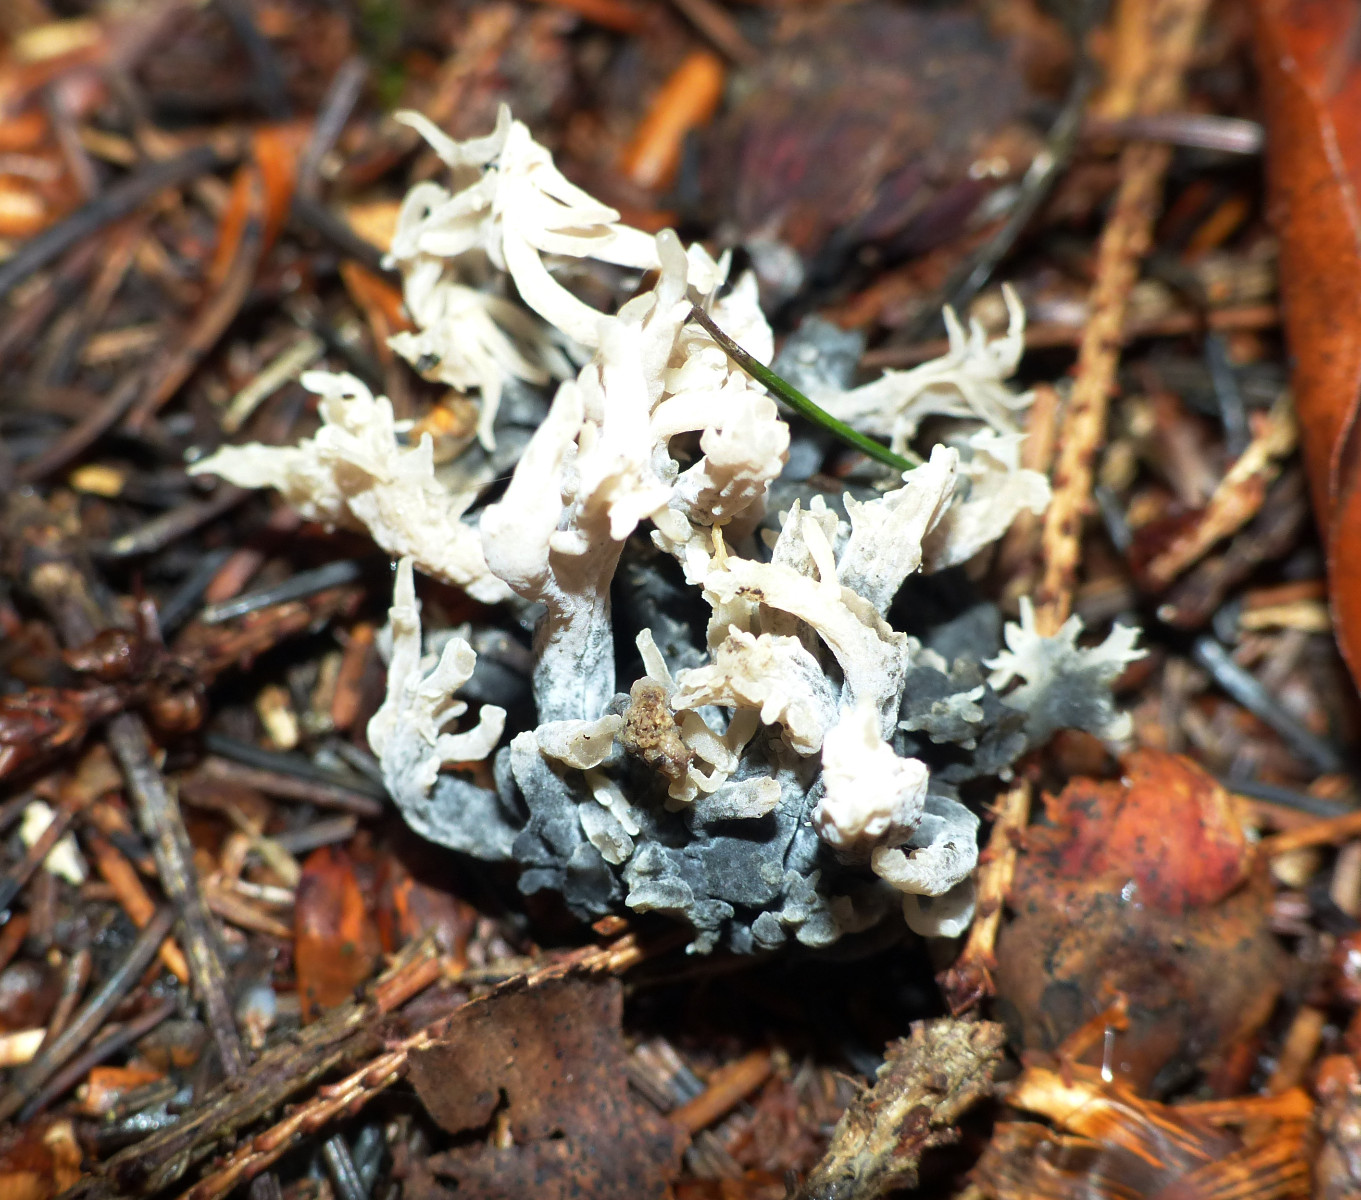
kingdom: Fungi
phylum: Ascomycota
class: Sordariomycetes
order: Sordariales
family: Helminthosphaeriaceae
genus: Helminthosphaeria
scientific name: Helminthosphaeria clavariarum
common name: trold-svampesnyltekerne
